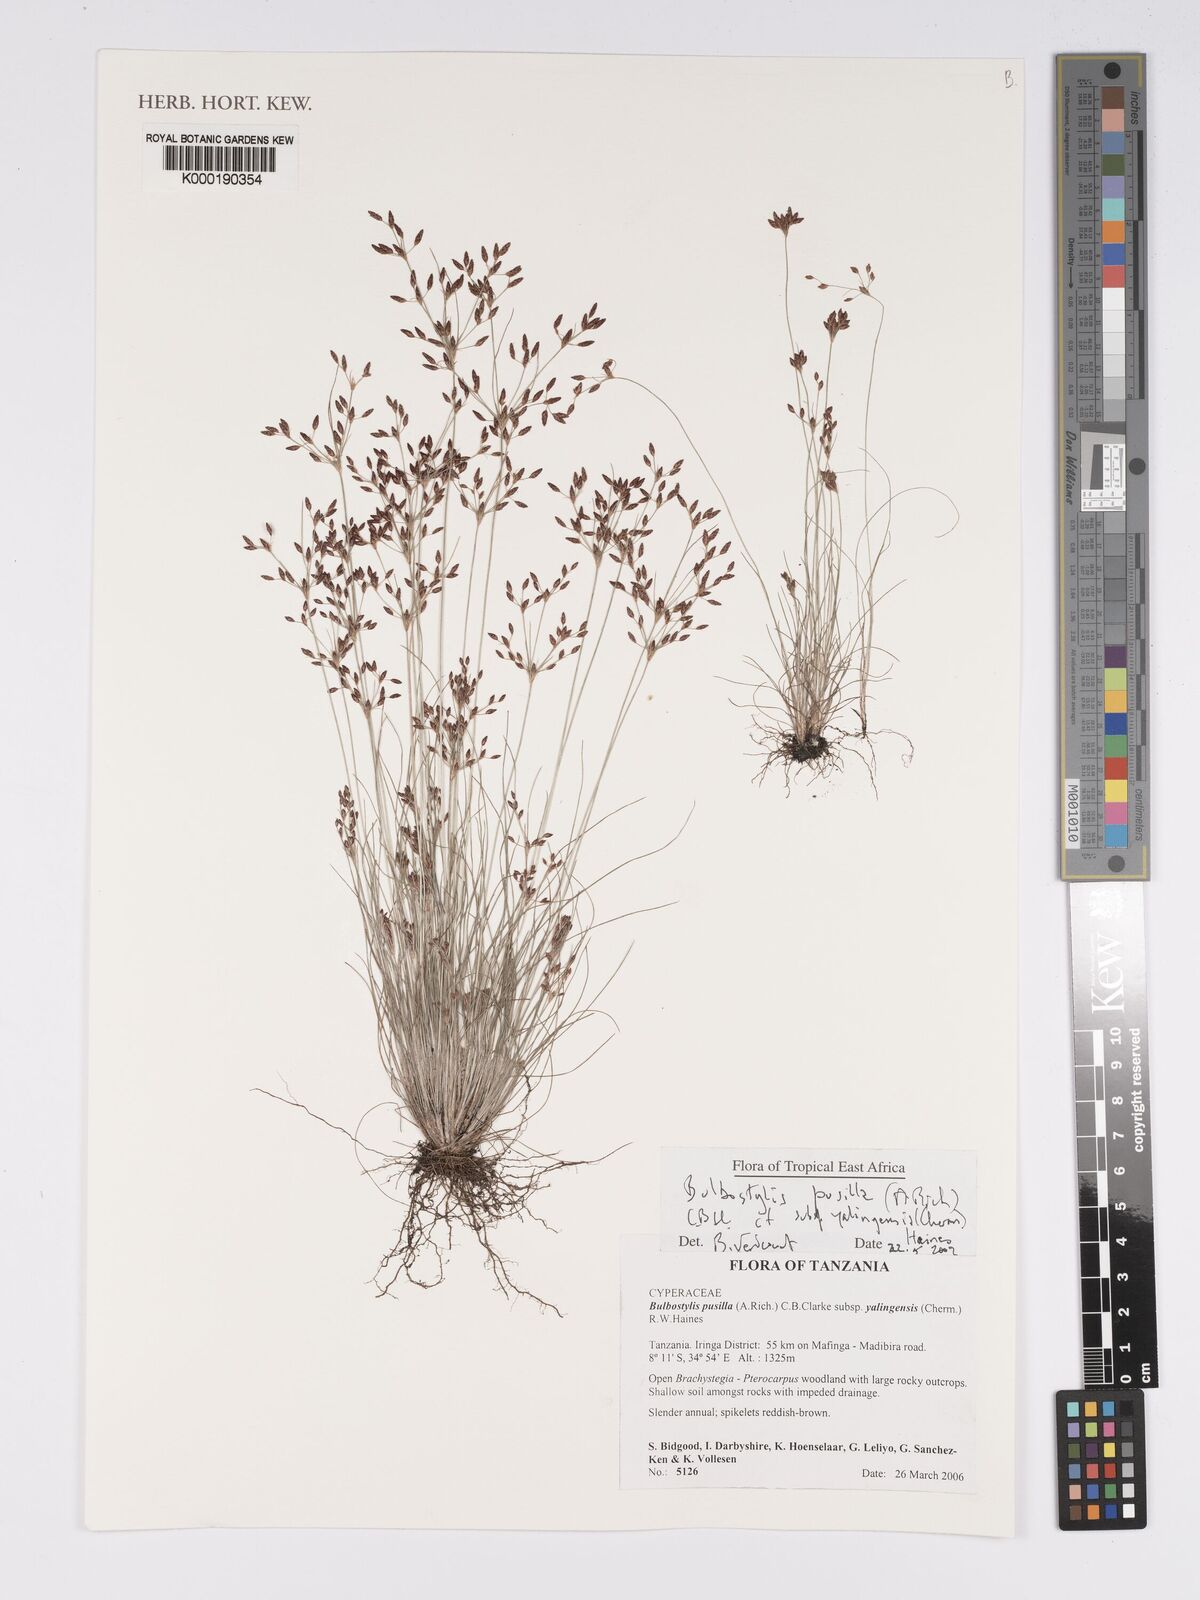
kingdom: Plantae
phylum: Tracheophyta
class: Liliopsida
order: Poales
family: Cyperaceae
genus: Bulbostylis
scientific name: Bulbostylis pusilla
